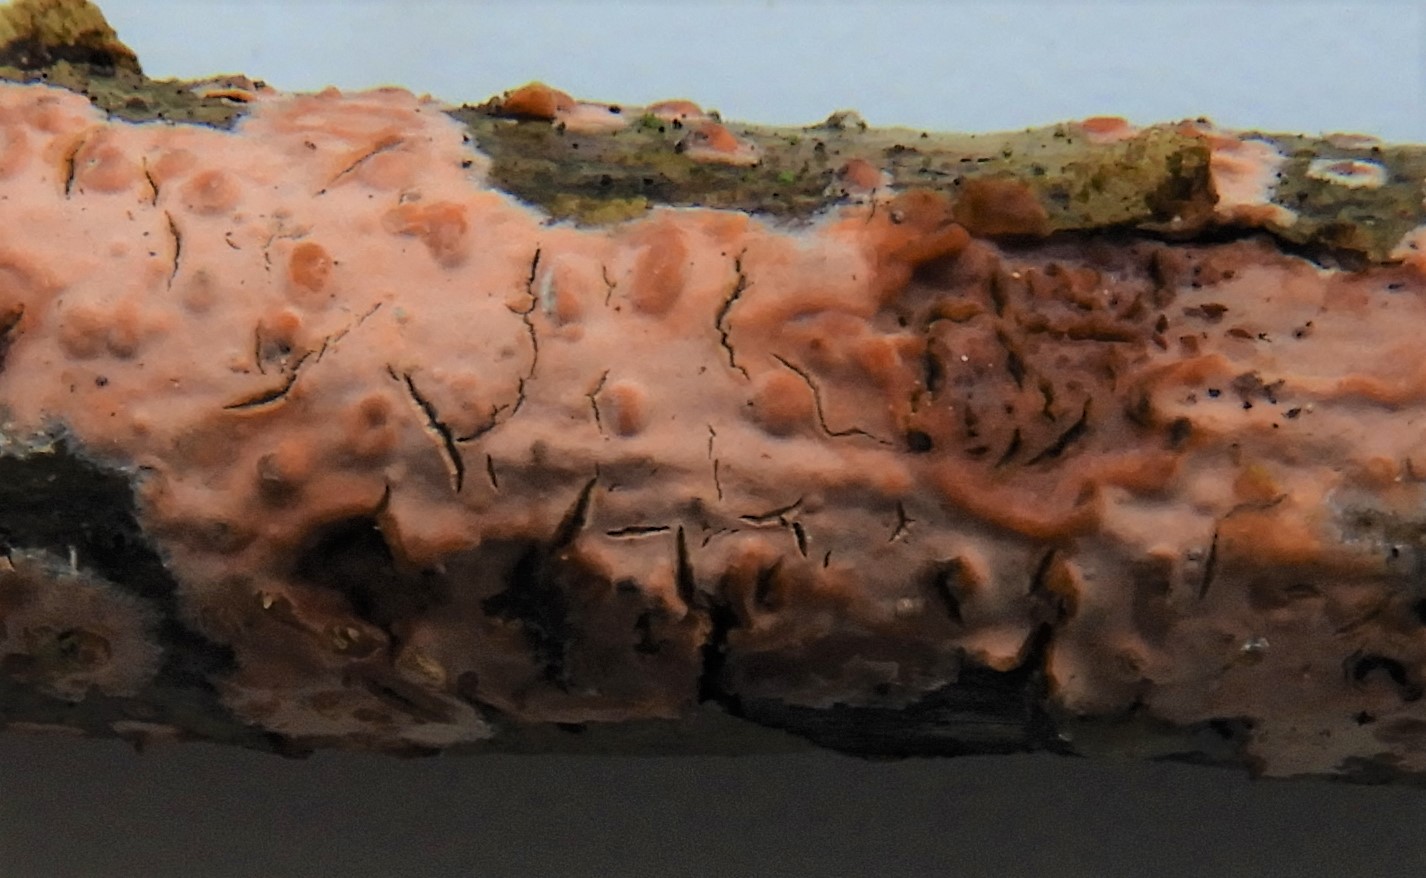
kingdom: Fungi
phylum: Basidiomycota
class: Agaricomycetes
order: Russulales
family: Peniophoraceae
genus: Peniophora
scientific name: Peniophora incarnata
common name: laksefarvet voksskind
